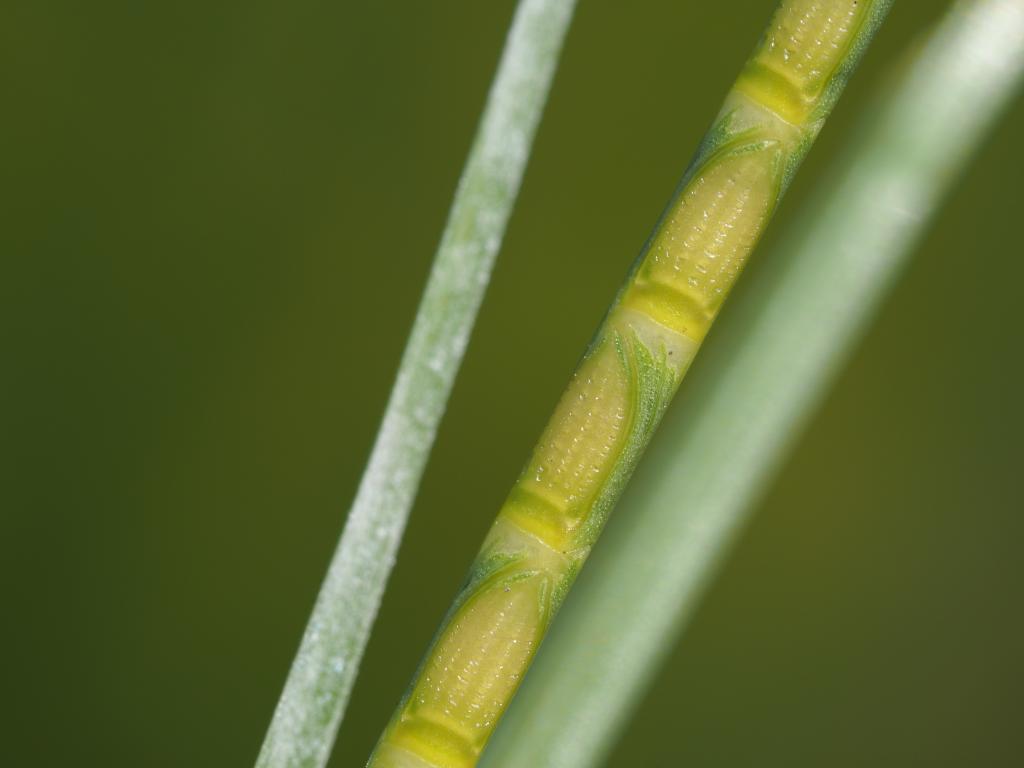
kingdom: Plantae
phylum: Tracheophyta
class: Liliopsida
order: Poales
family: Poaceae
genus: Mnesithea
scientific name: Mnesithea laevis
